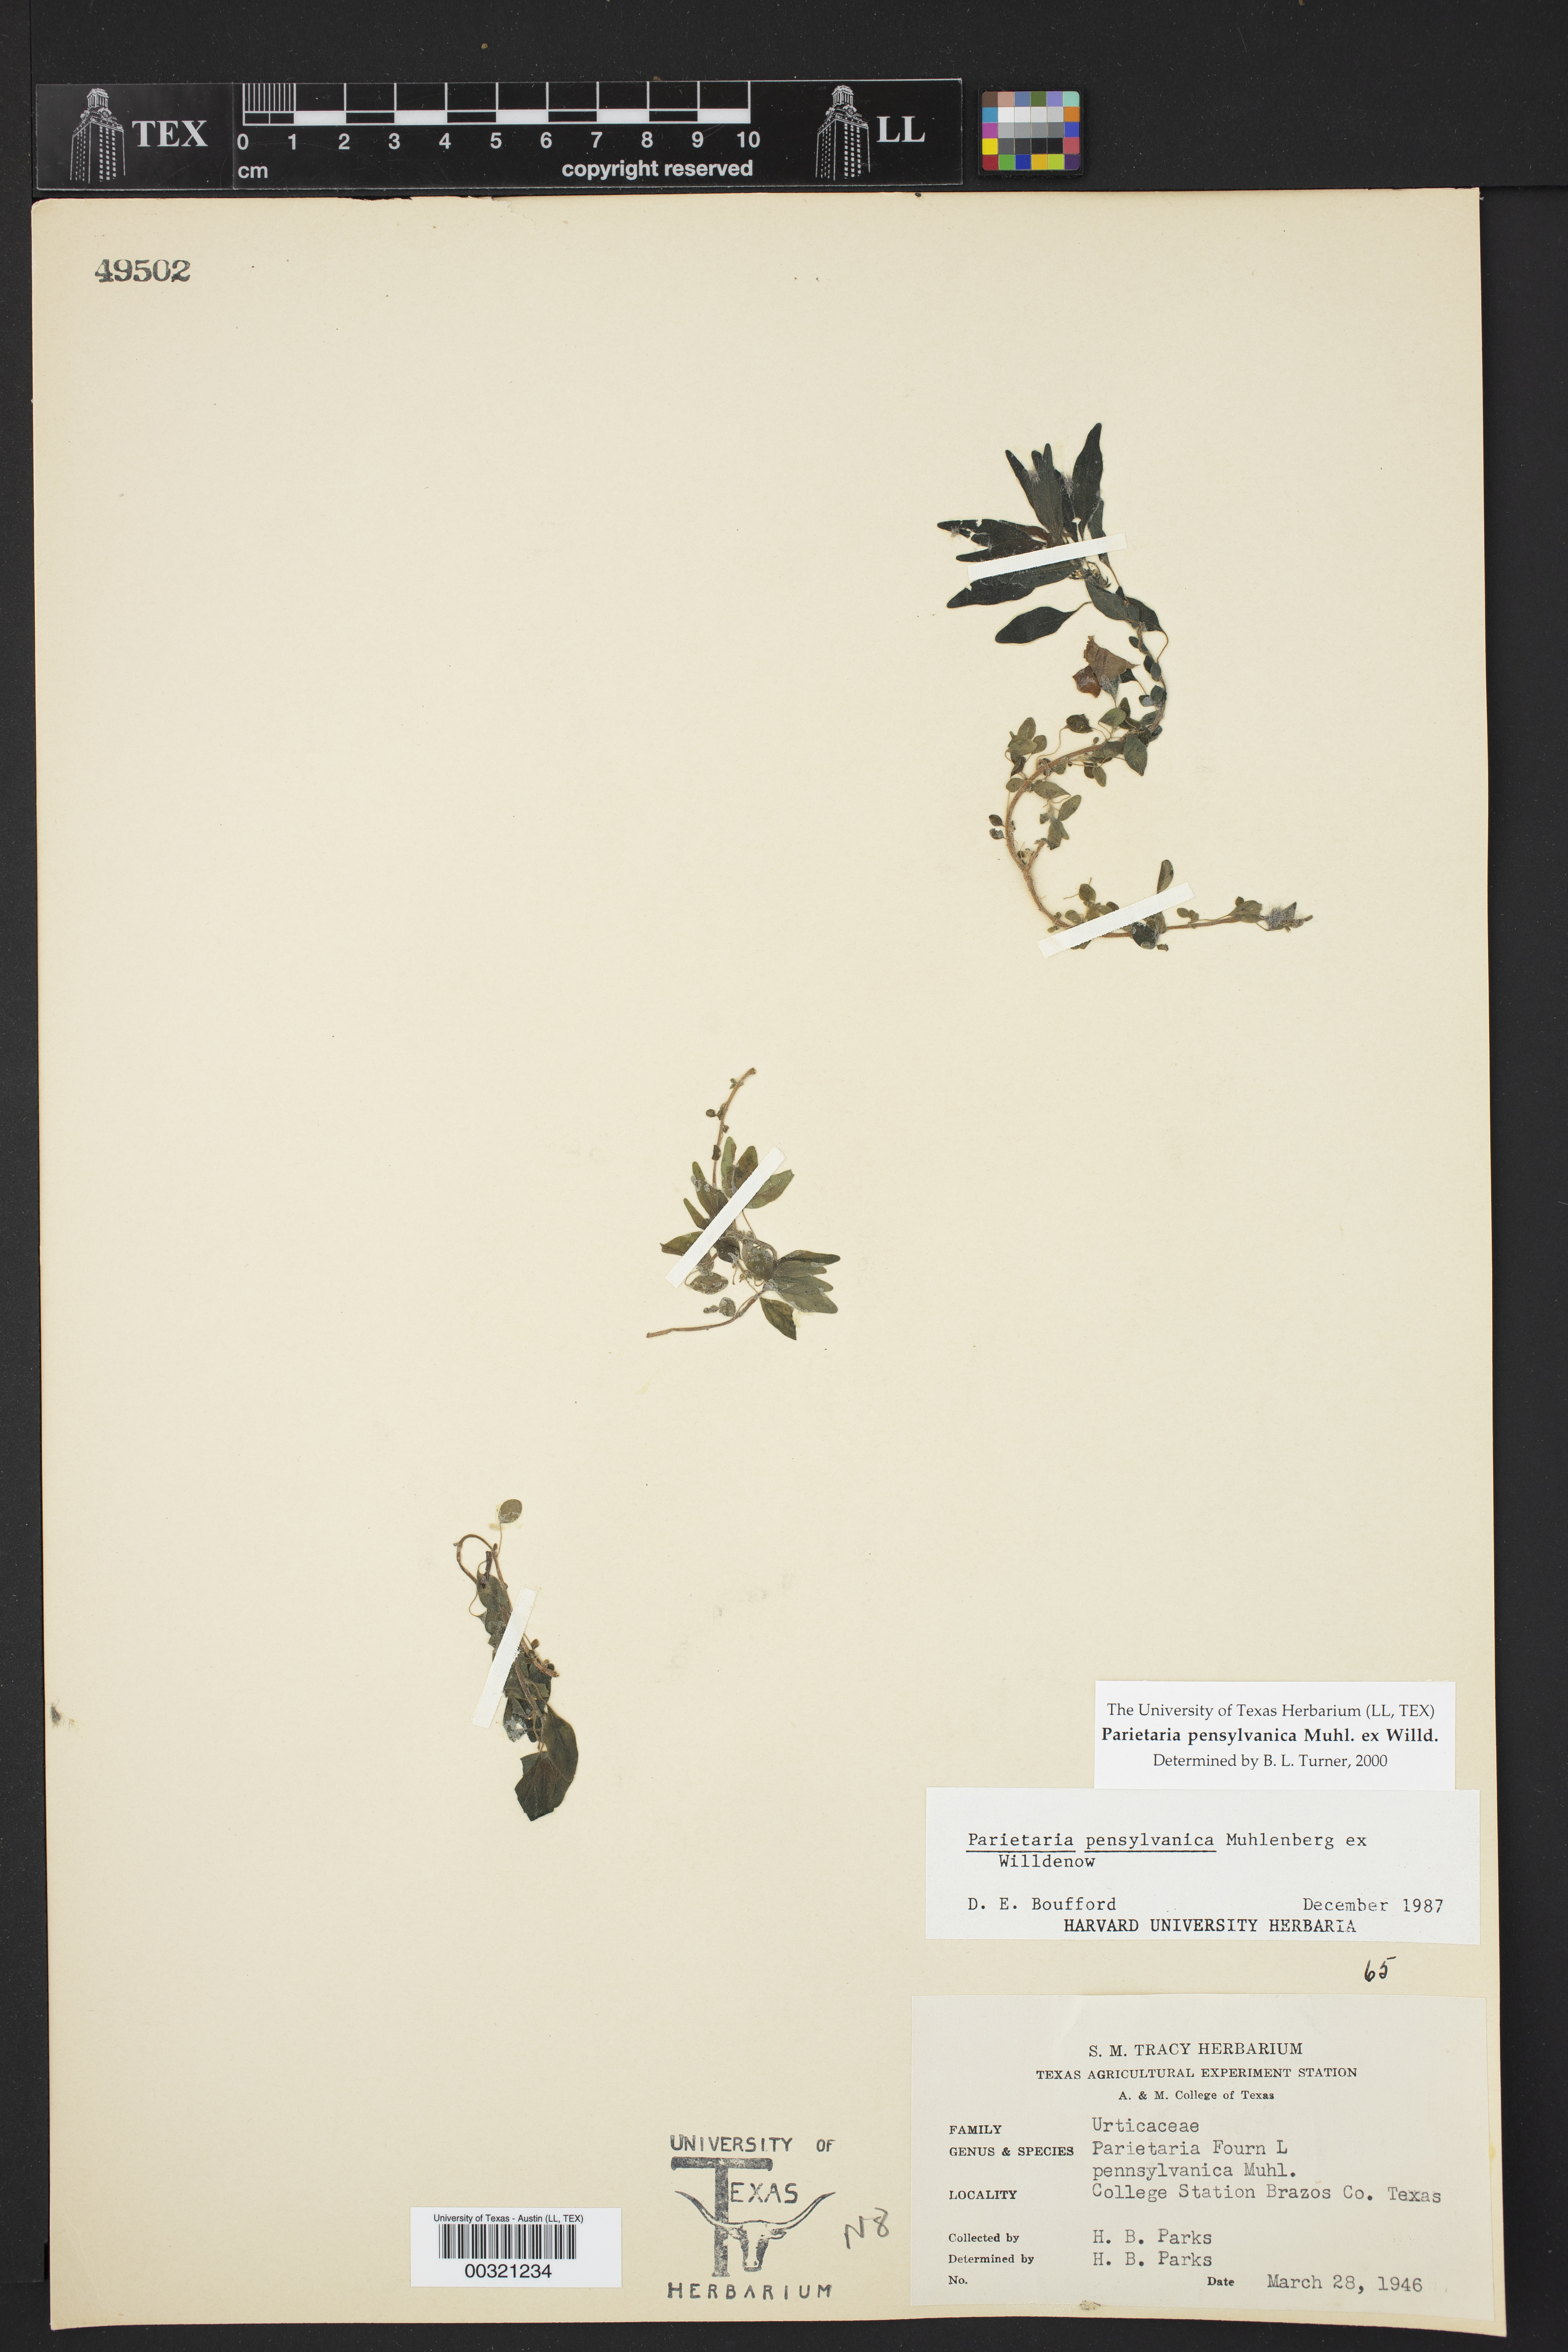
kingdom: Plantae
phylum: Tracheophyta
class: Magnoliopsida
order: Rosales
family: Urticaceae
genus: Parietaria
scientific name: Parietaria pensylvanica
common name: Pennsylvania pellitory
